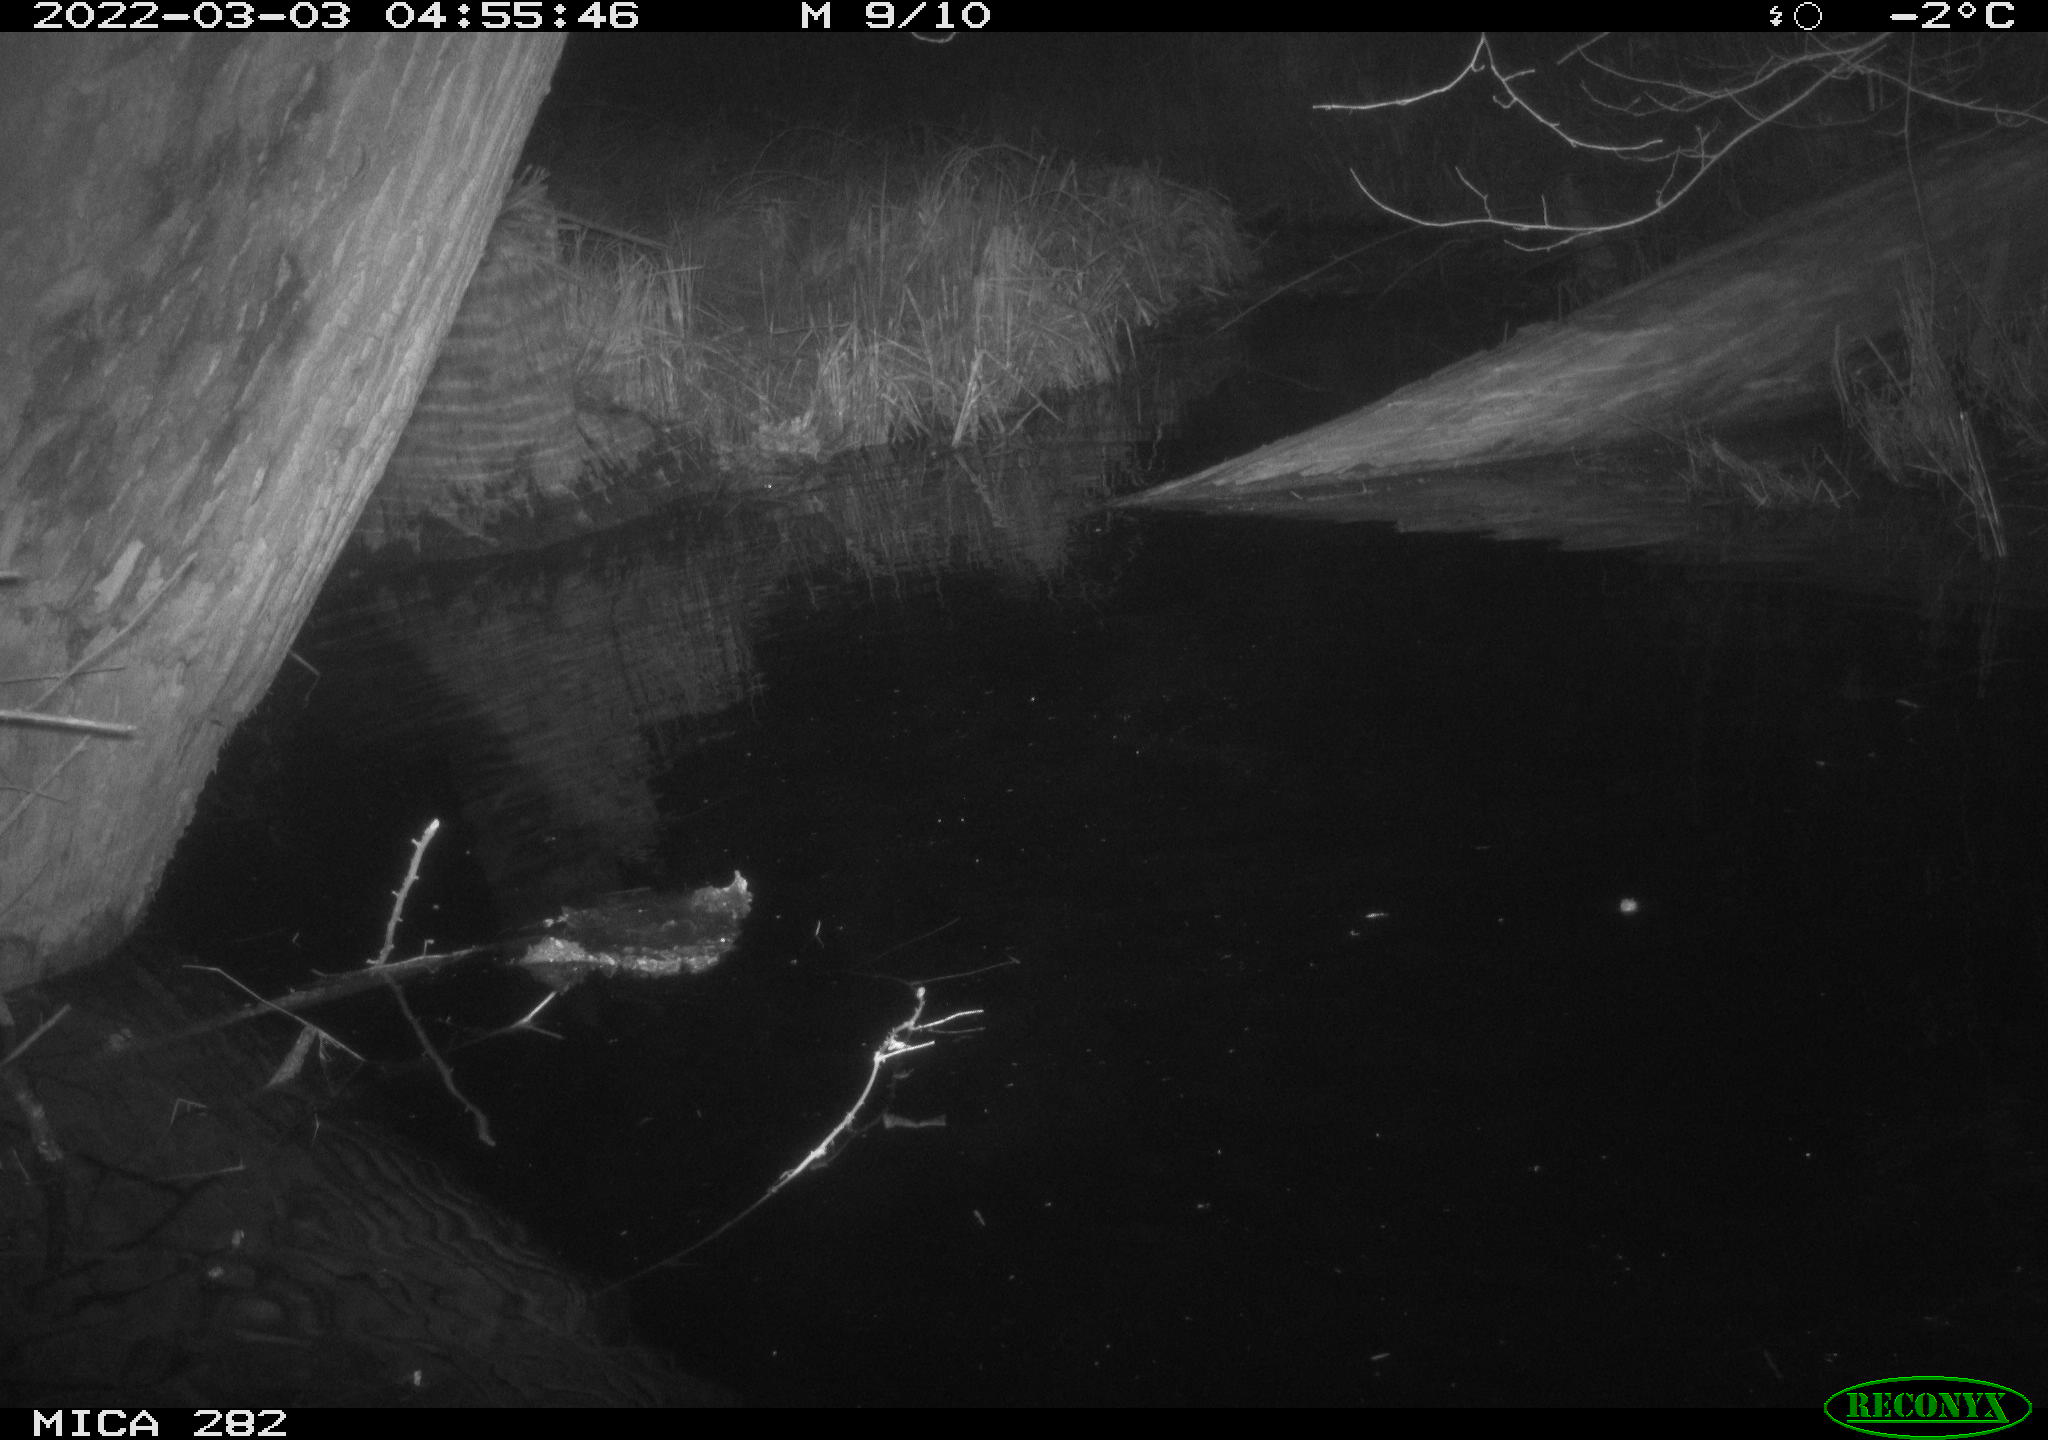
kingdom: Animalia
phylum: Chordata
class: Aves
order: Anseriformes
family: Anatidae
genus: Anas
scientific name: Anas platyrhynchos
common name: Mallard
